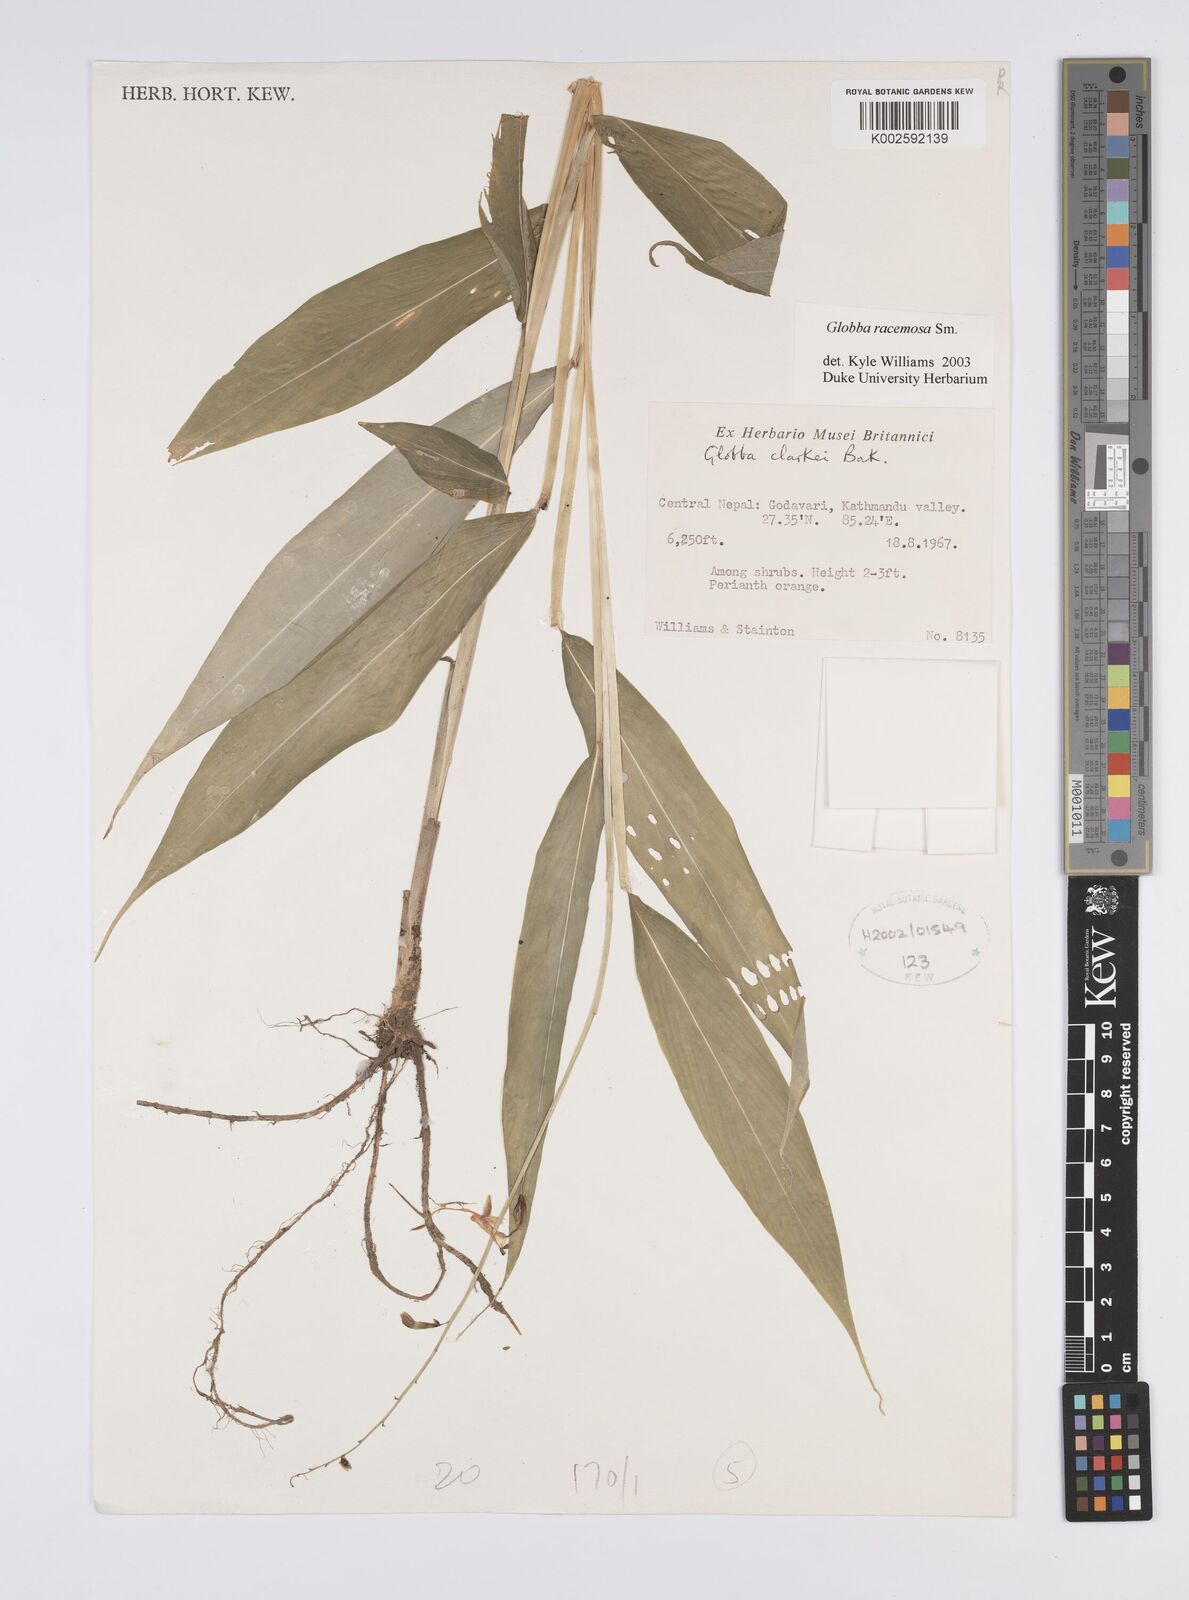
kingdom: Plantae
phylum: Tracheophyta
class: Liliopsida
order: Zingiberales
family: Zingiberaceae
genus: Globba
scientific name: Globba racemosa
